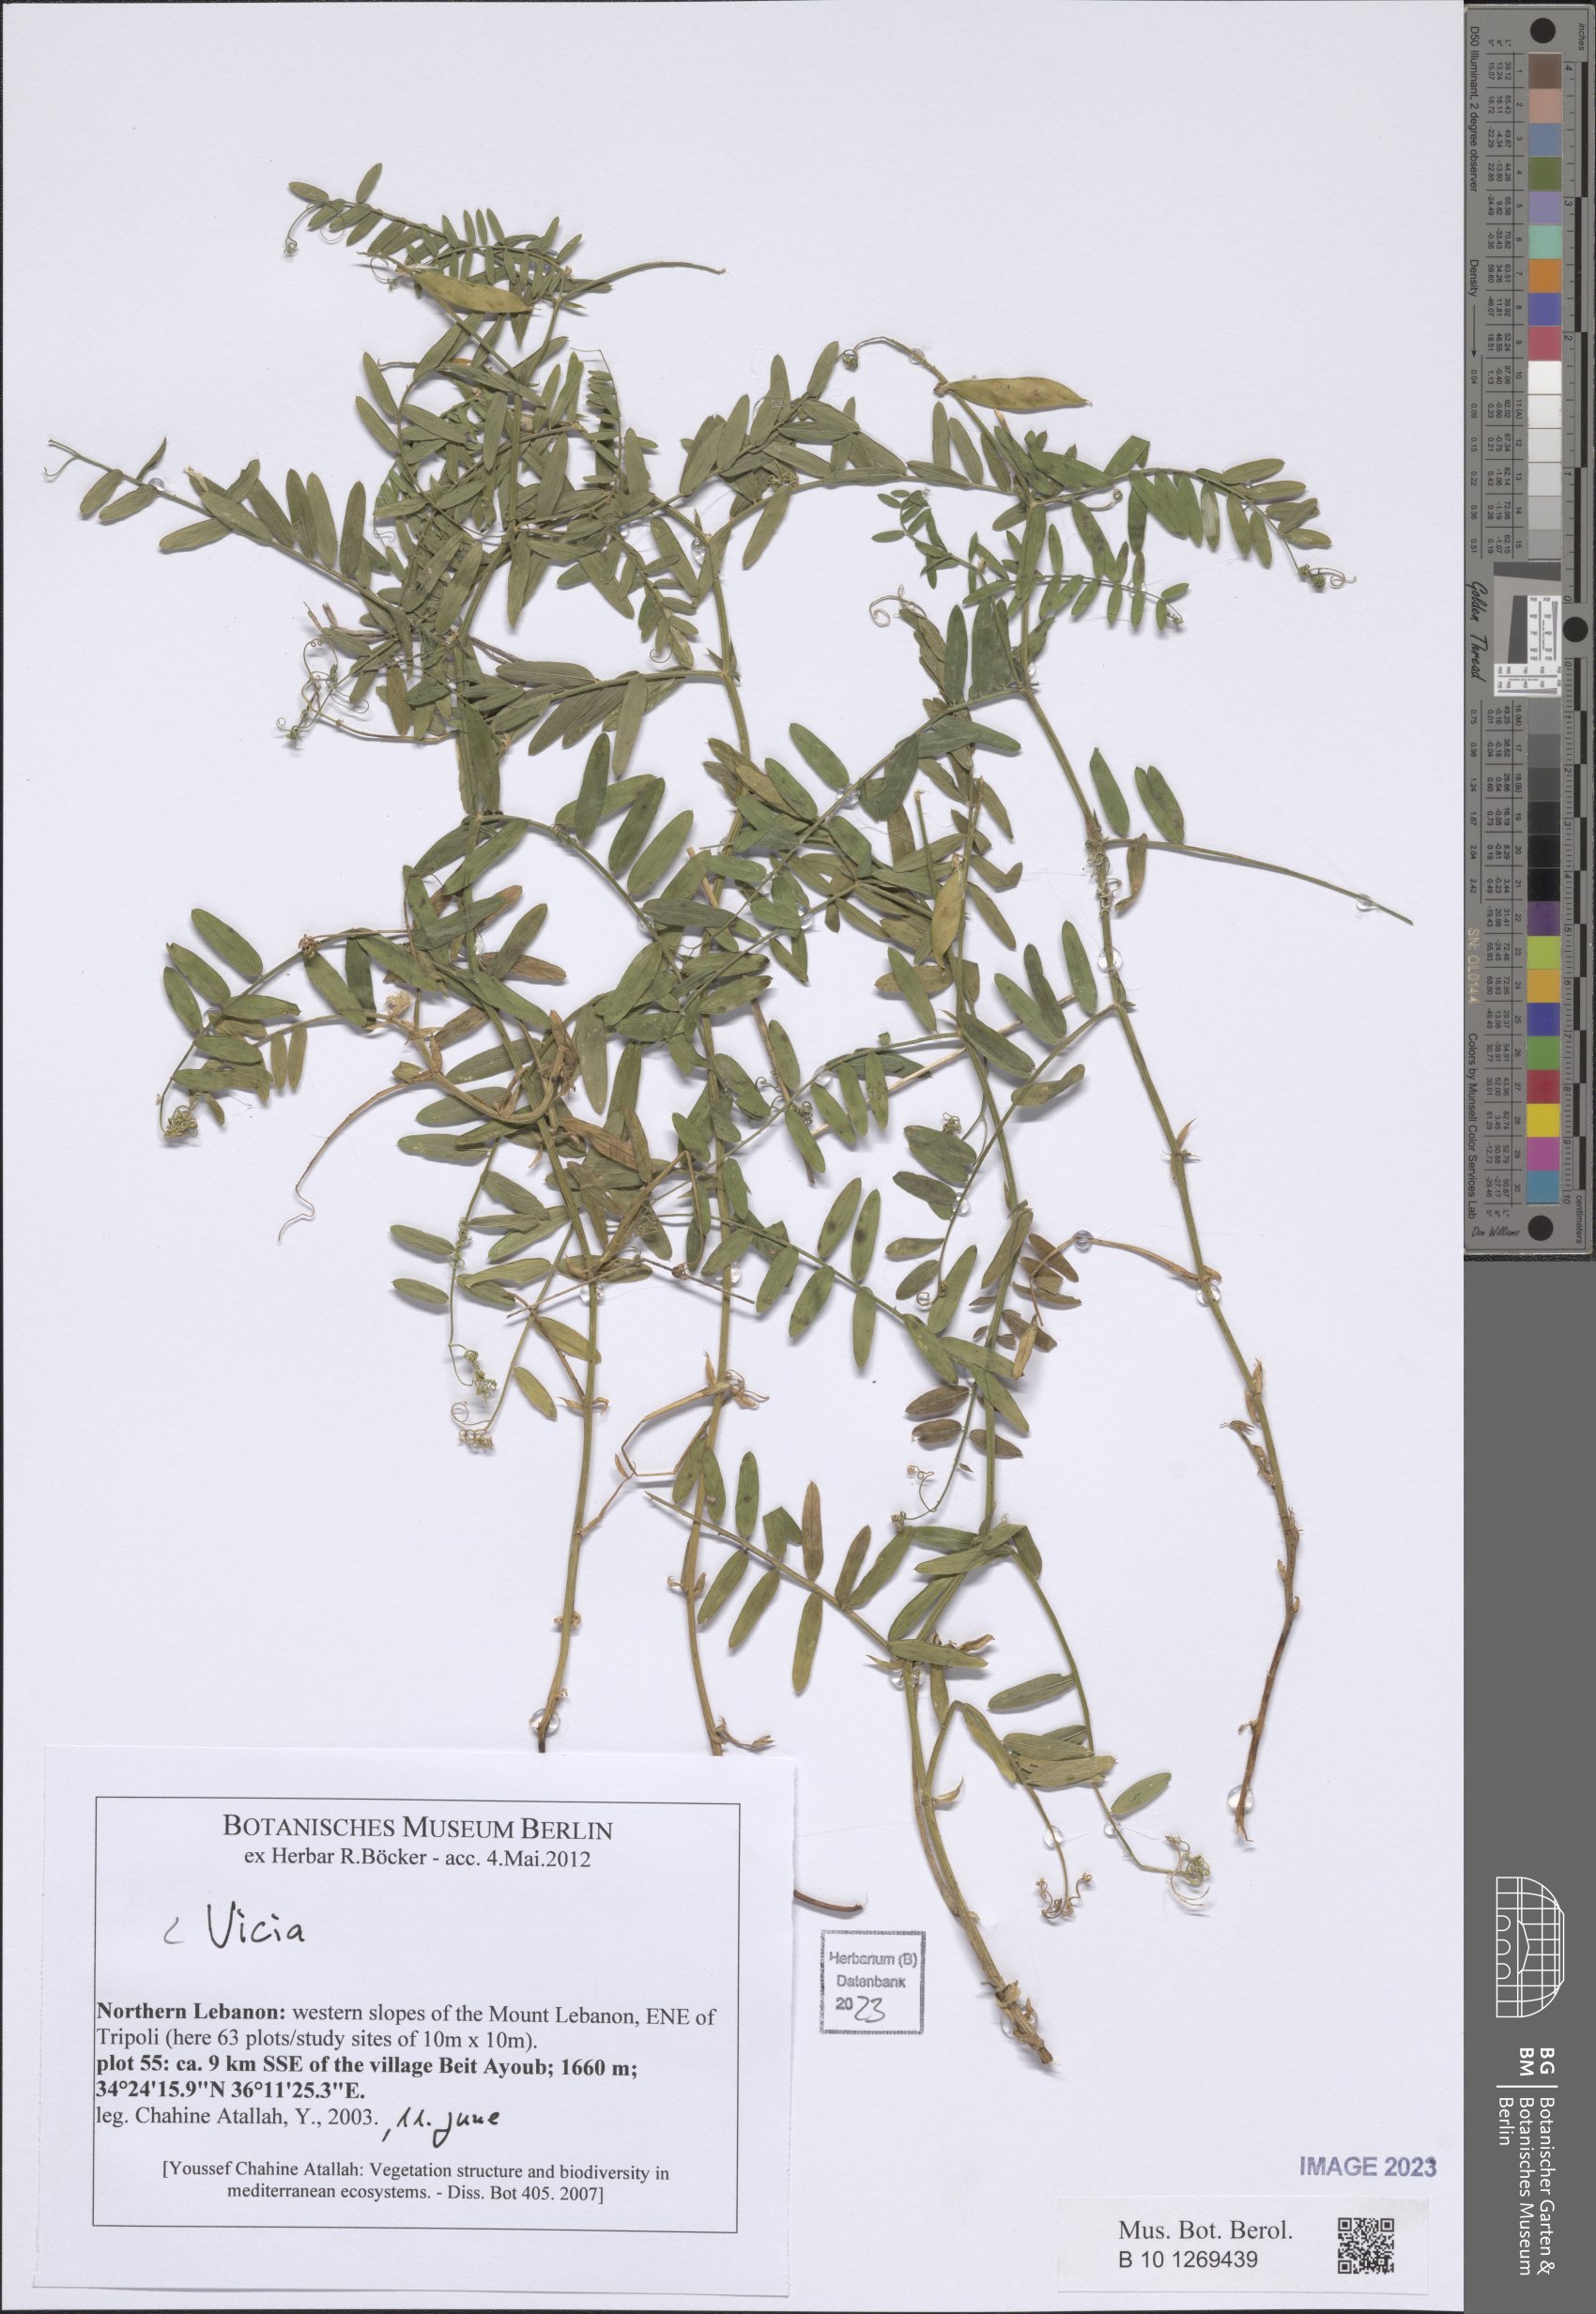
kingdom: Plantae
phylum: Tracheophyta
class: Magnoliopsida
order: Fabales
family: Fabaceae
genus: Vicia
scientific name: Vicia
